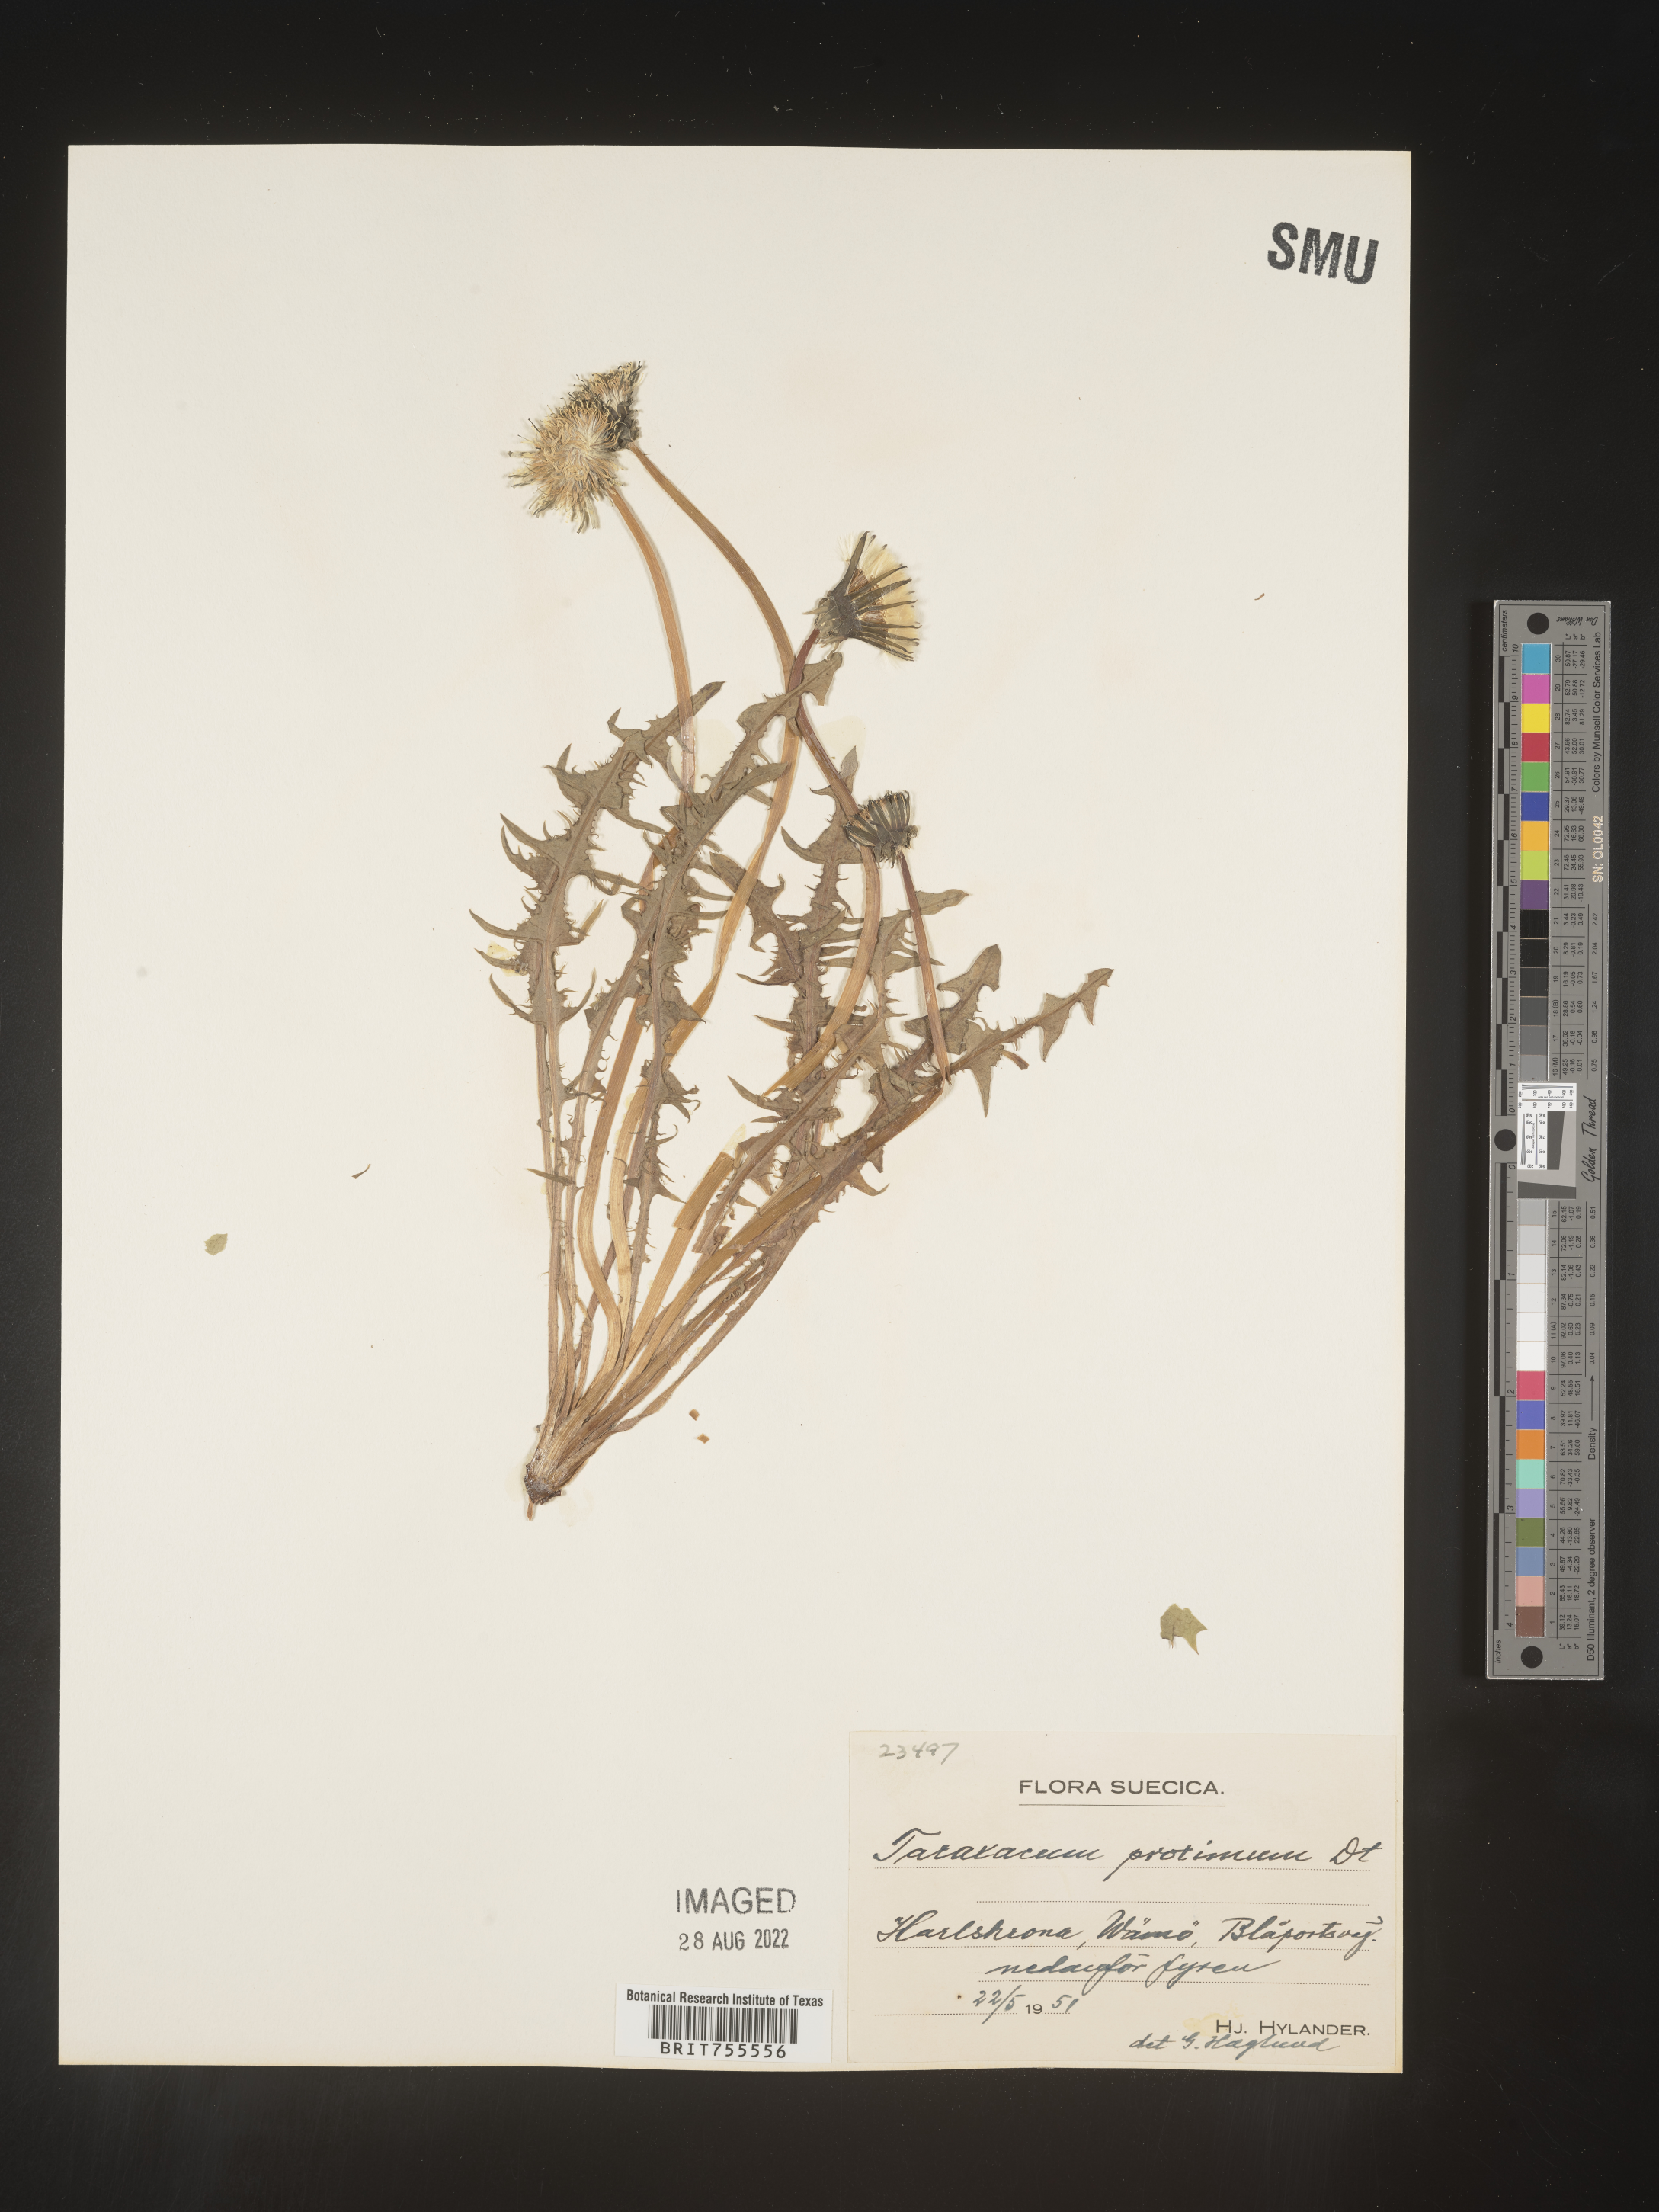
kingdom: Plantae
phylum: Tracheophyta
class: Magnoliopsida
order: Asterales
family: Asteraceae
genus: Taraxacum
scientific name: Taraxacum
